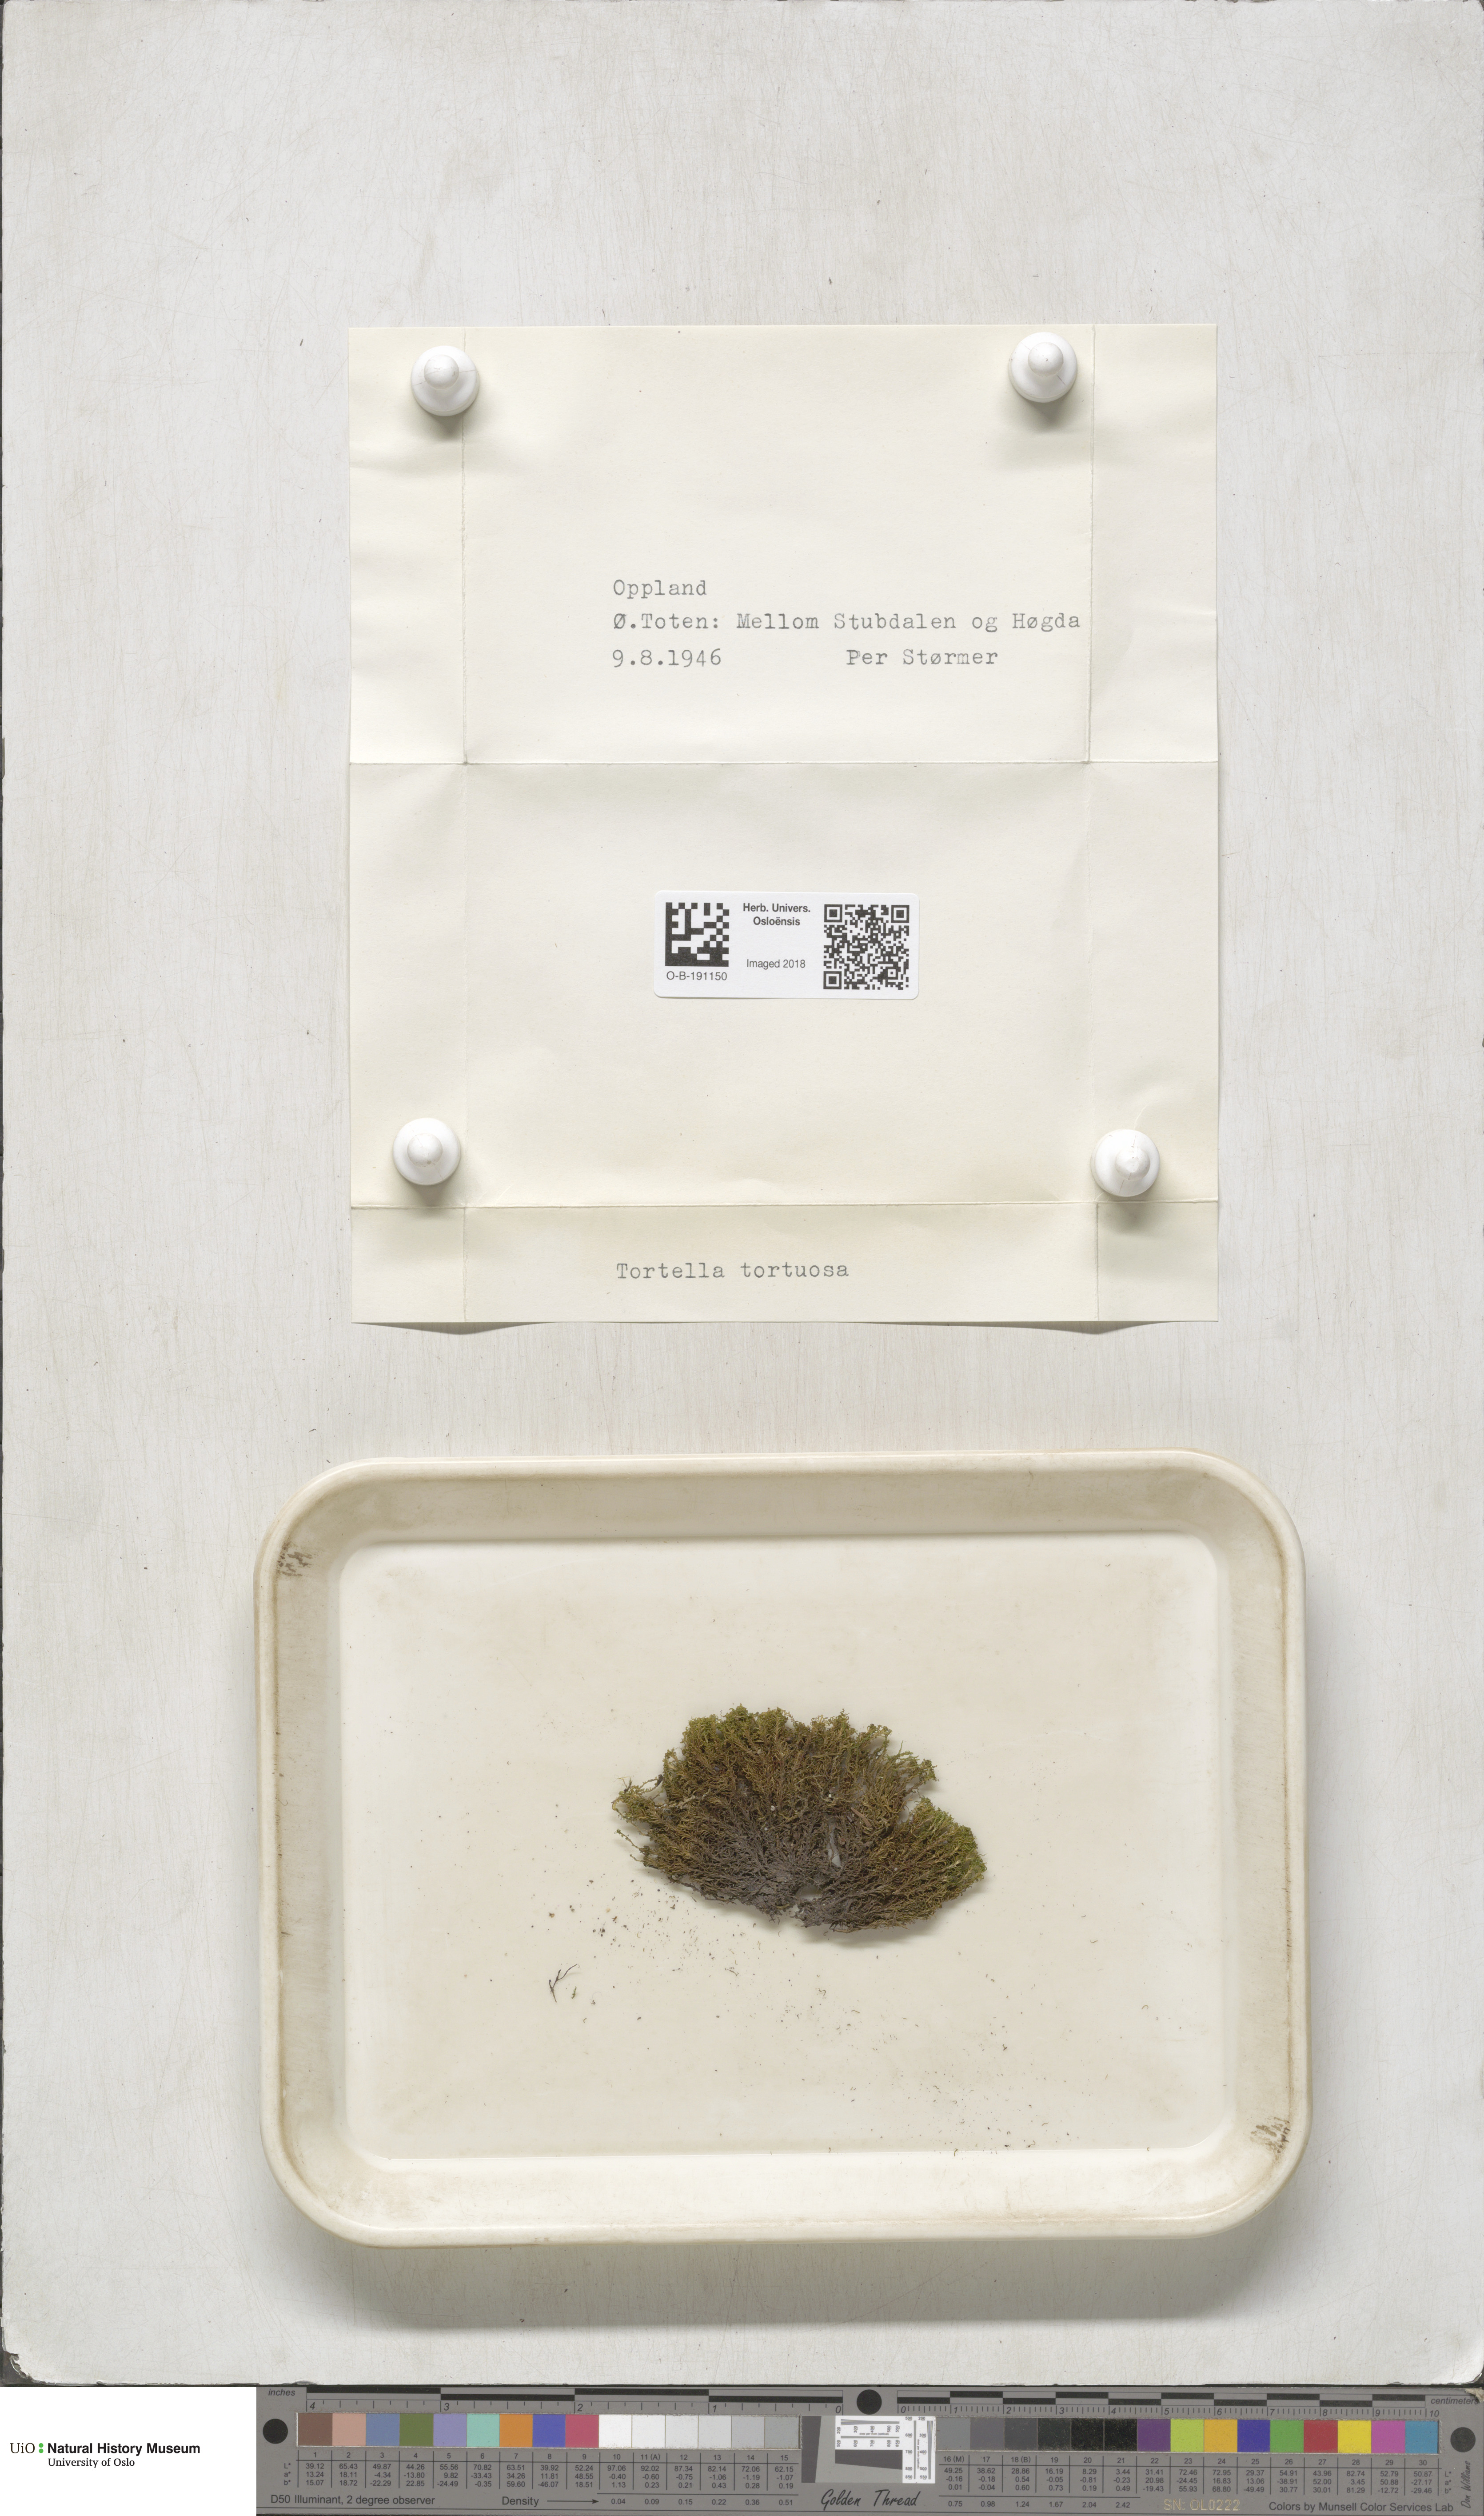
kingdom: Plantae
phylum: Bryophyta
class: Bryopsida
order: Pottiales
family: Pottiaceae
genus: Tortella
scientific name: Tortella tortuosa
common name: Frizzled crisp moss
